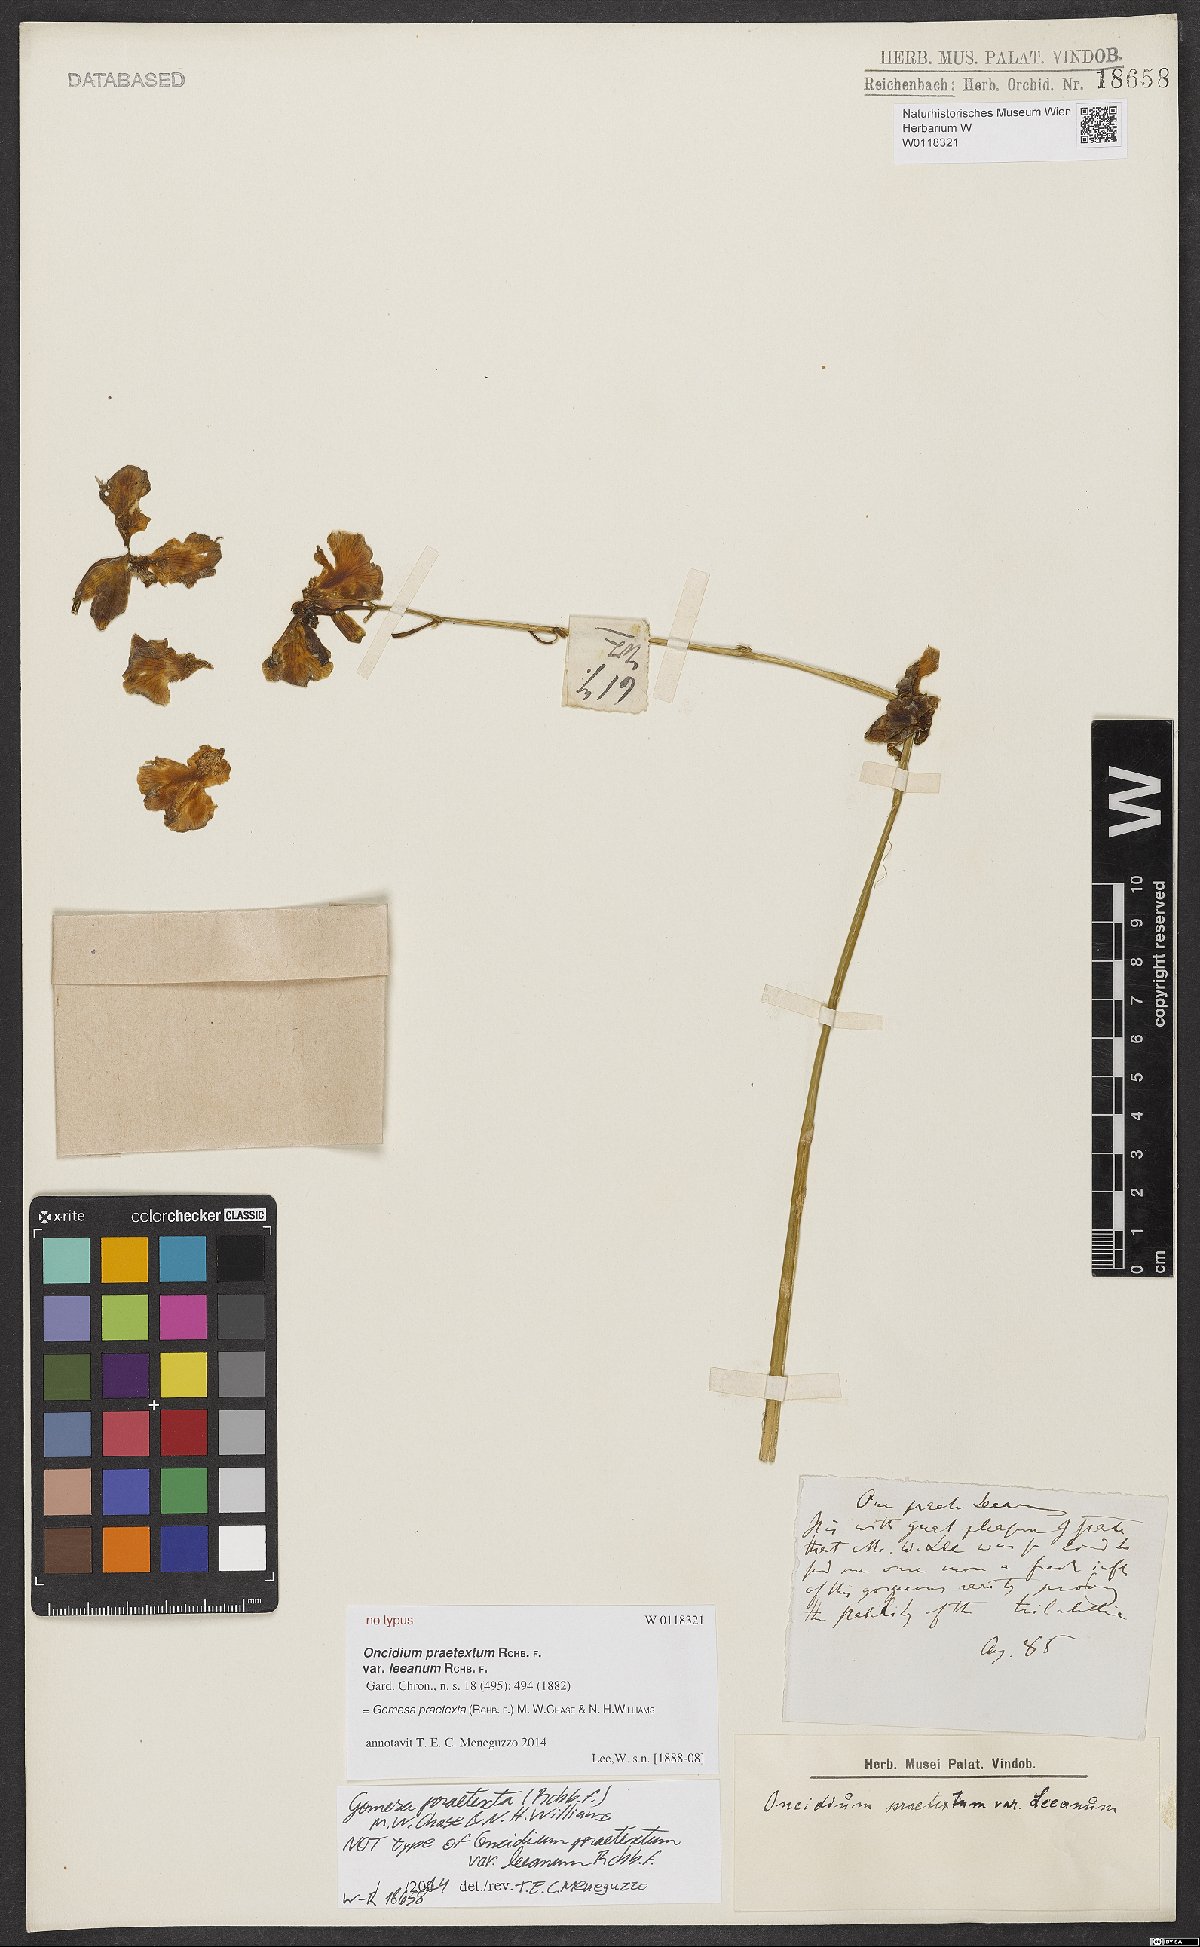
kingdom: Plantae
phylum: Tracheophyta
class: Liliopsida
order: Asparagales
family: Orchidaceae
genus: Gomesa
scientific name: Gomesa praetexta
